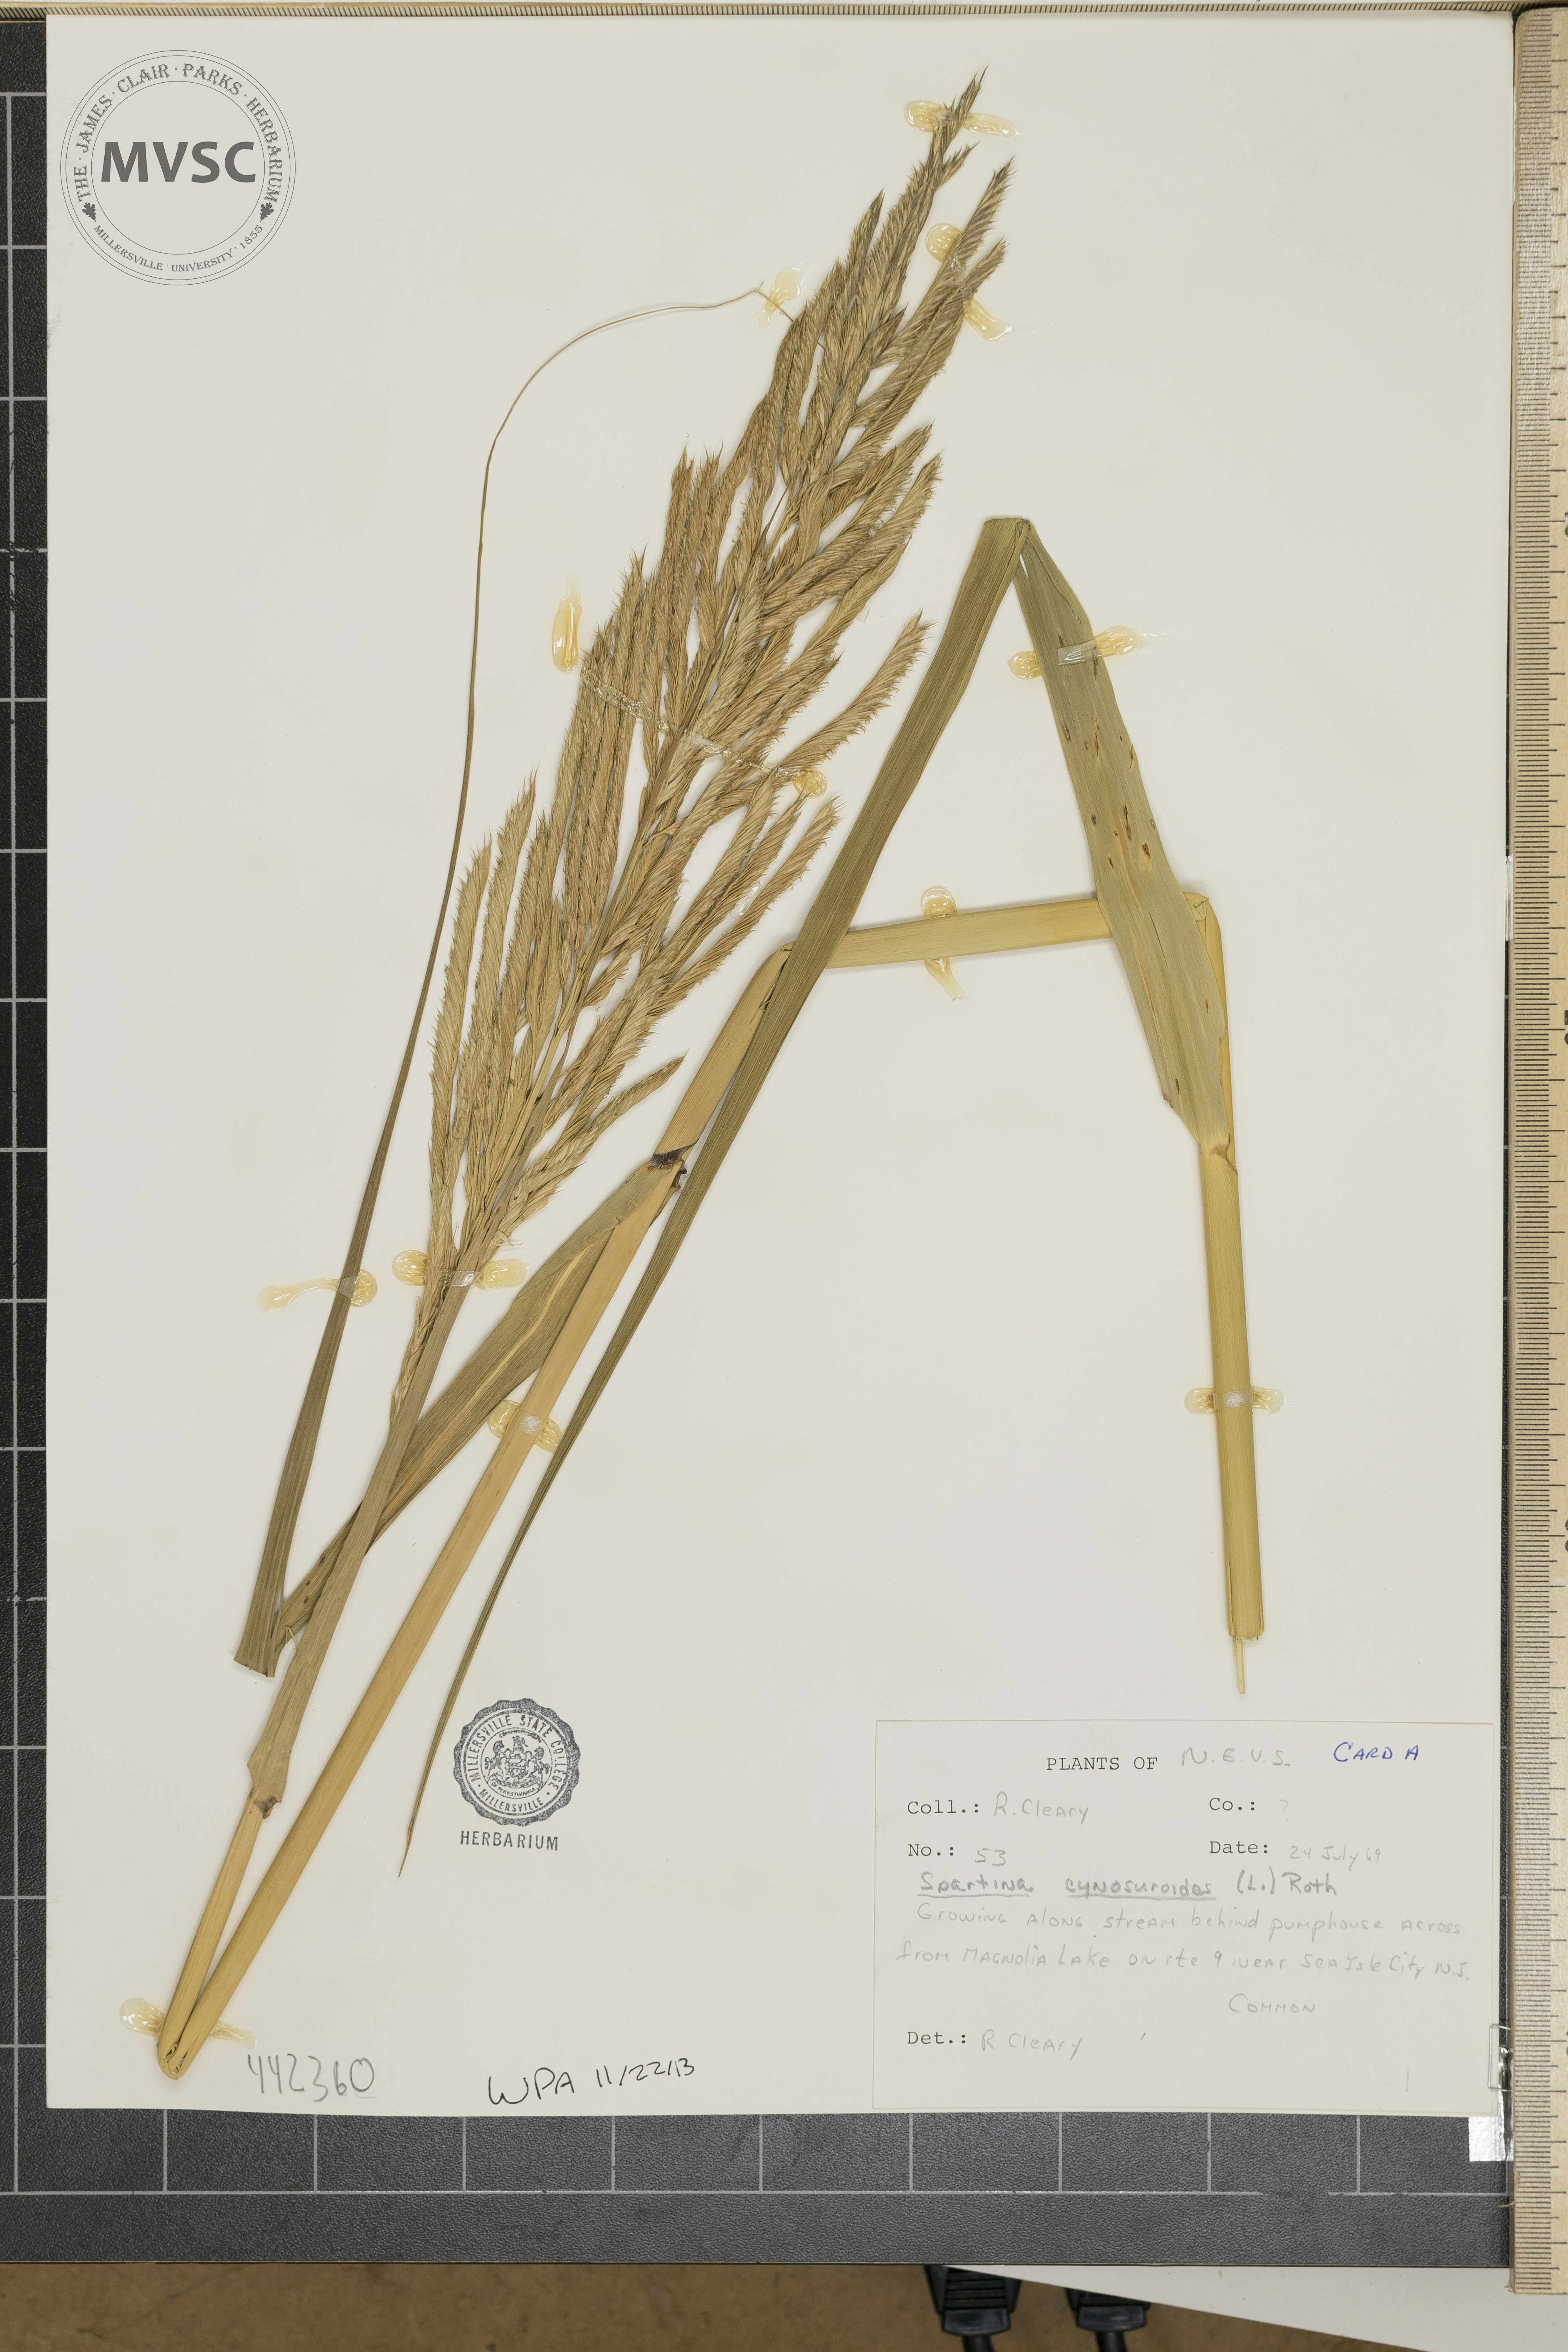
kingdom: Plantae
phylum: Tracheophyta
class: Liliopsida
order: Poales
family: Poaceae
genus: Sporobolus
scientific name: Sporobolus cynosuroides
